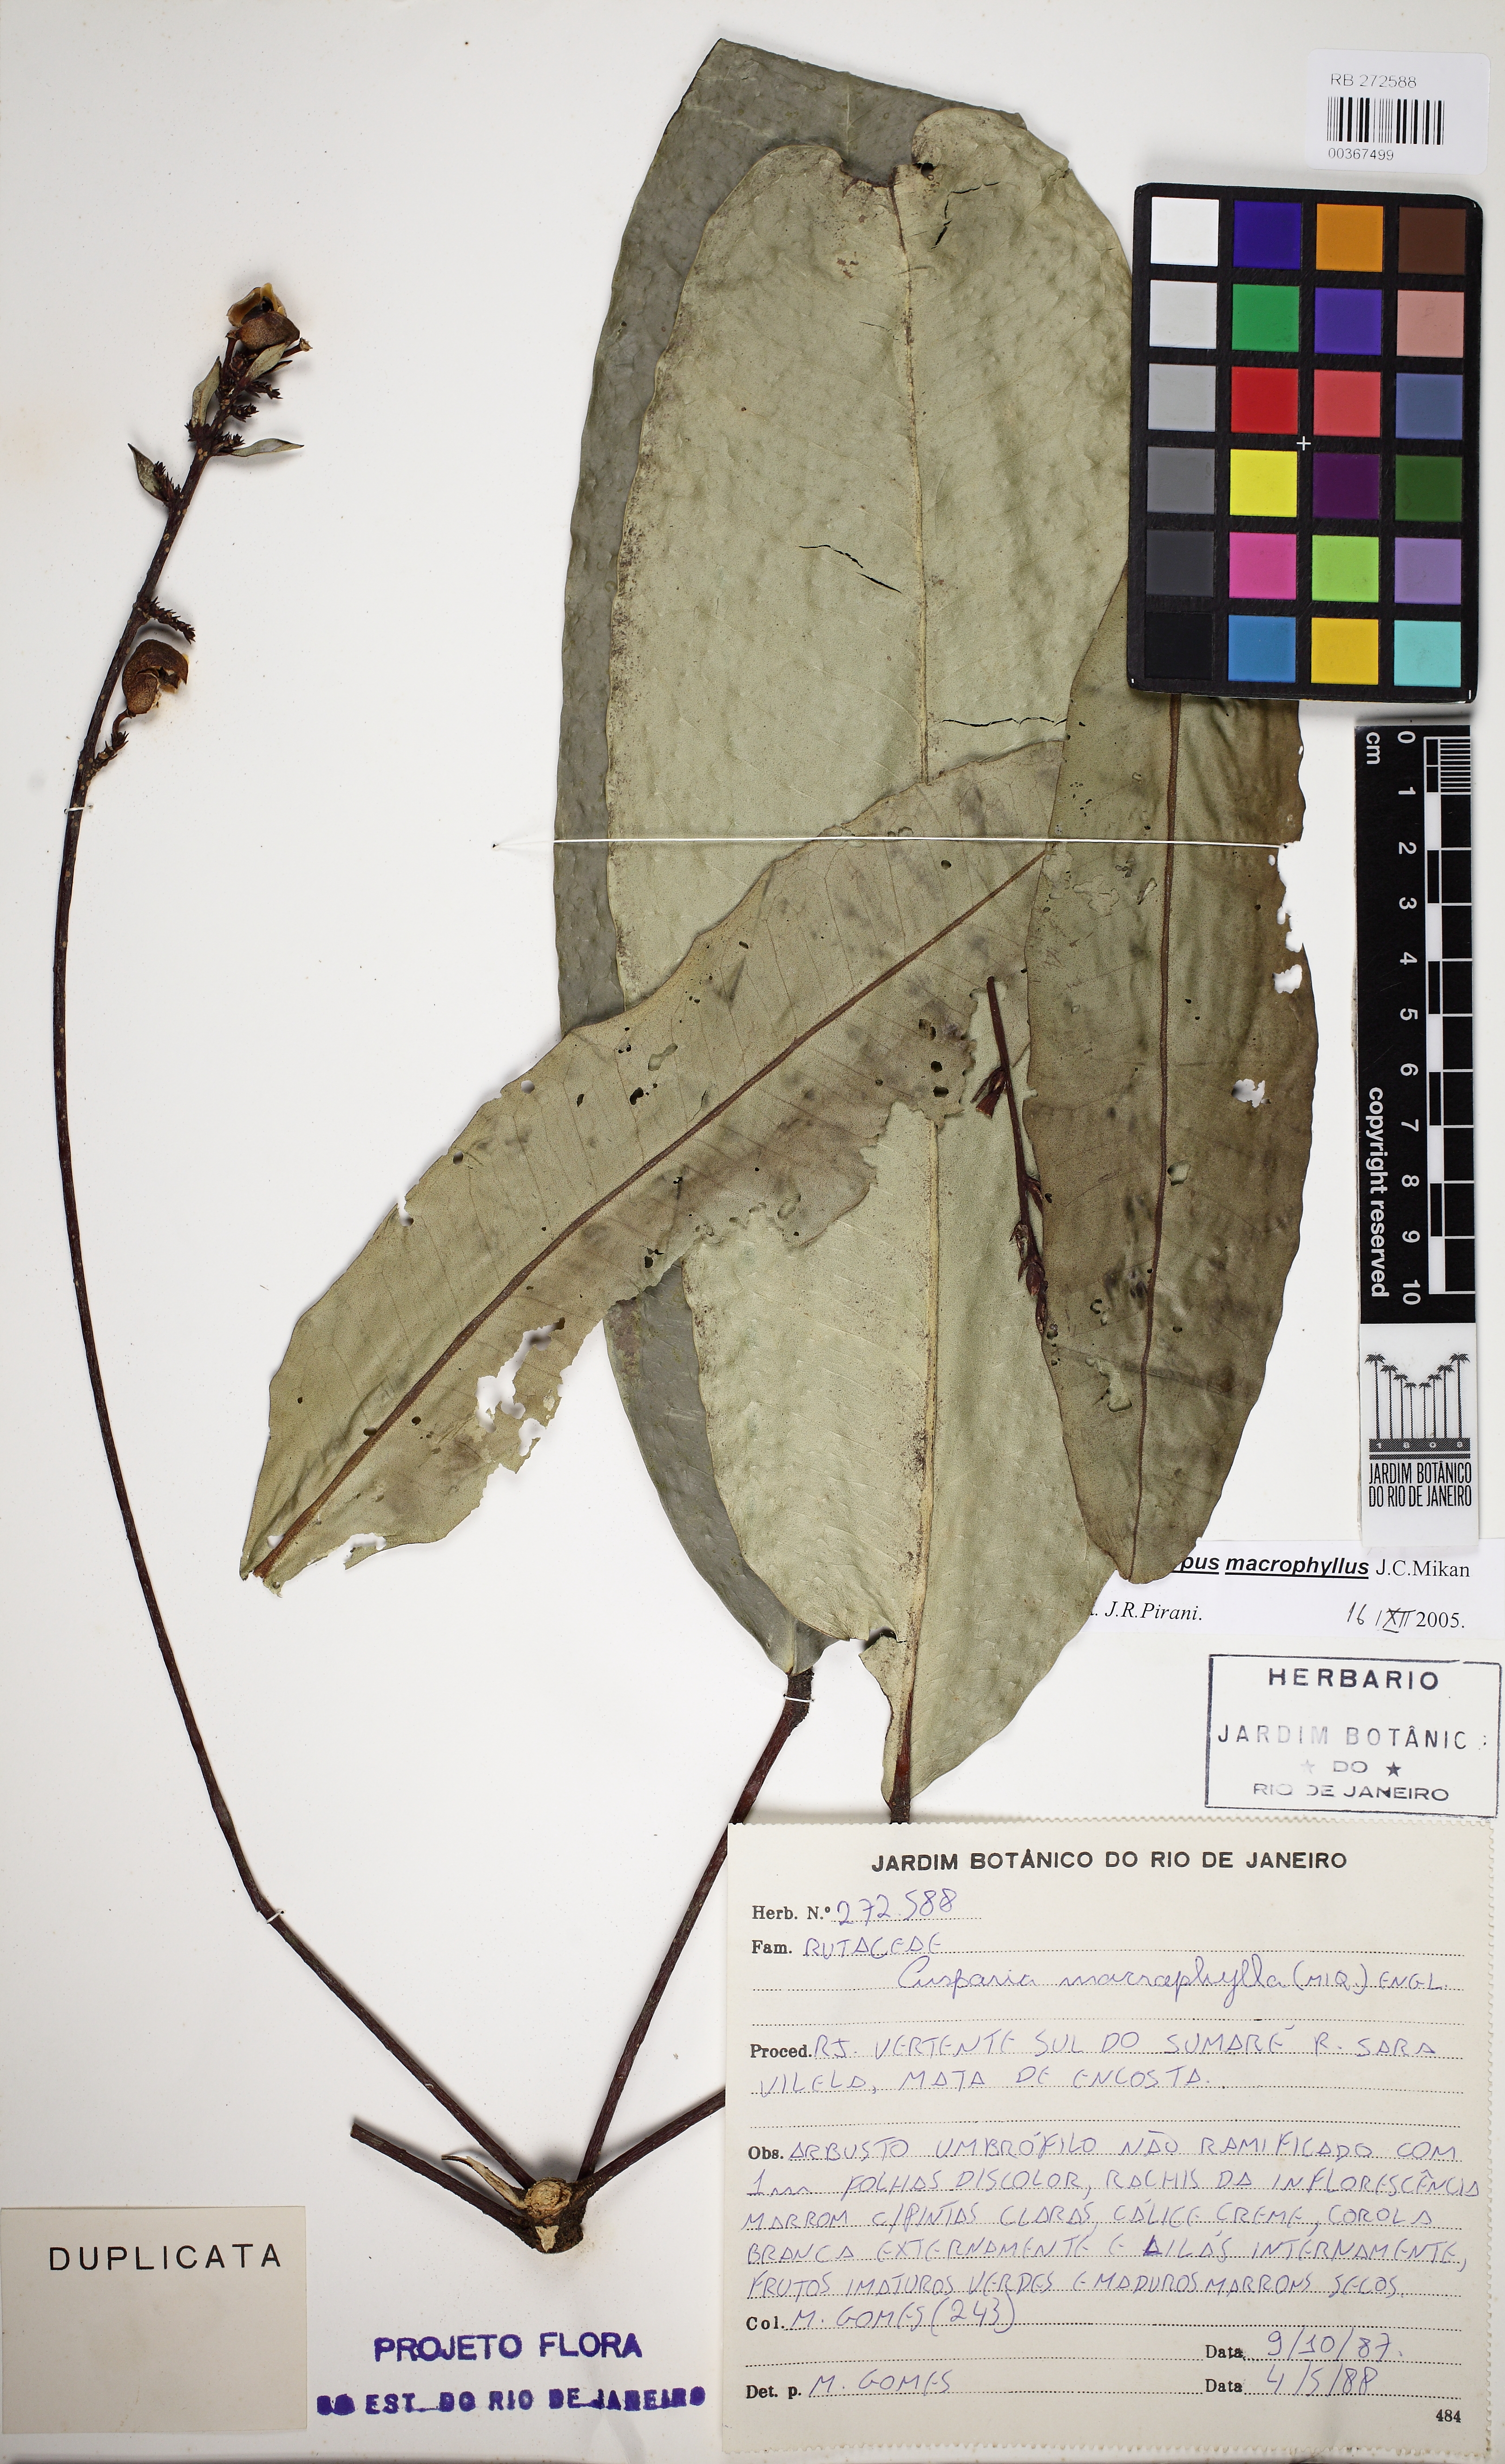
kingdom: Plantae
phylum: Tracheophyta
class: Magnoliopsida
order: Sapindales
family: Rutaceae
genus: Conchocarpus
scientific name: Conchocarpus macrophyllus
